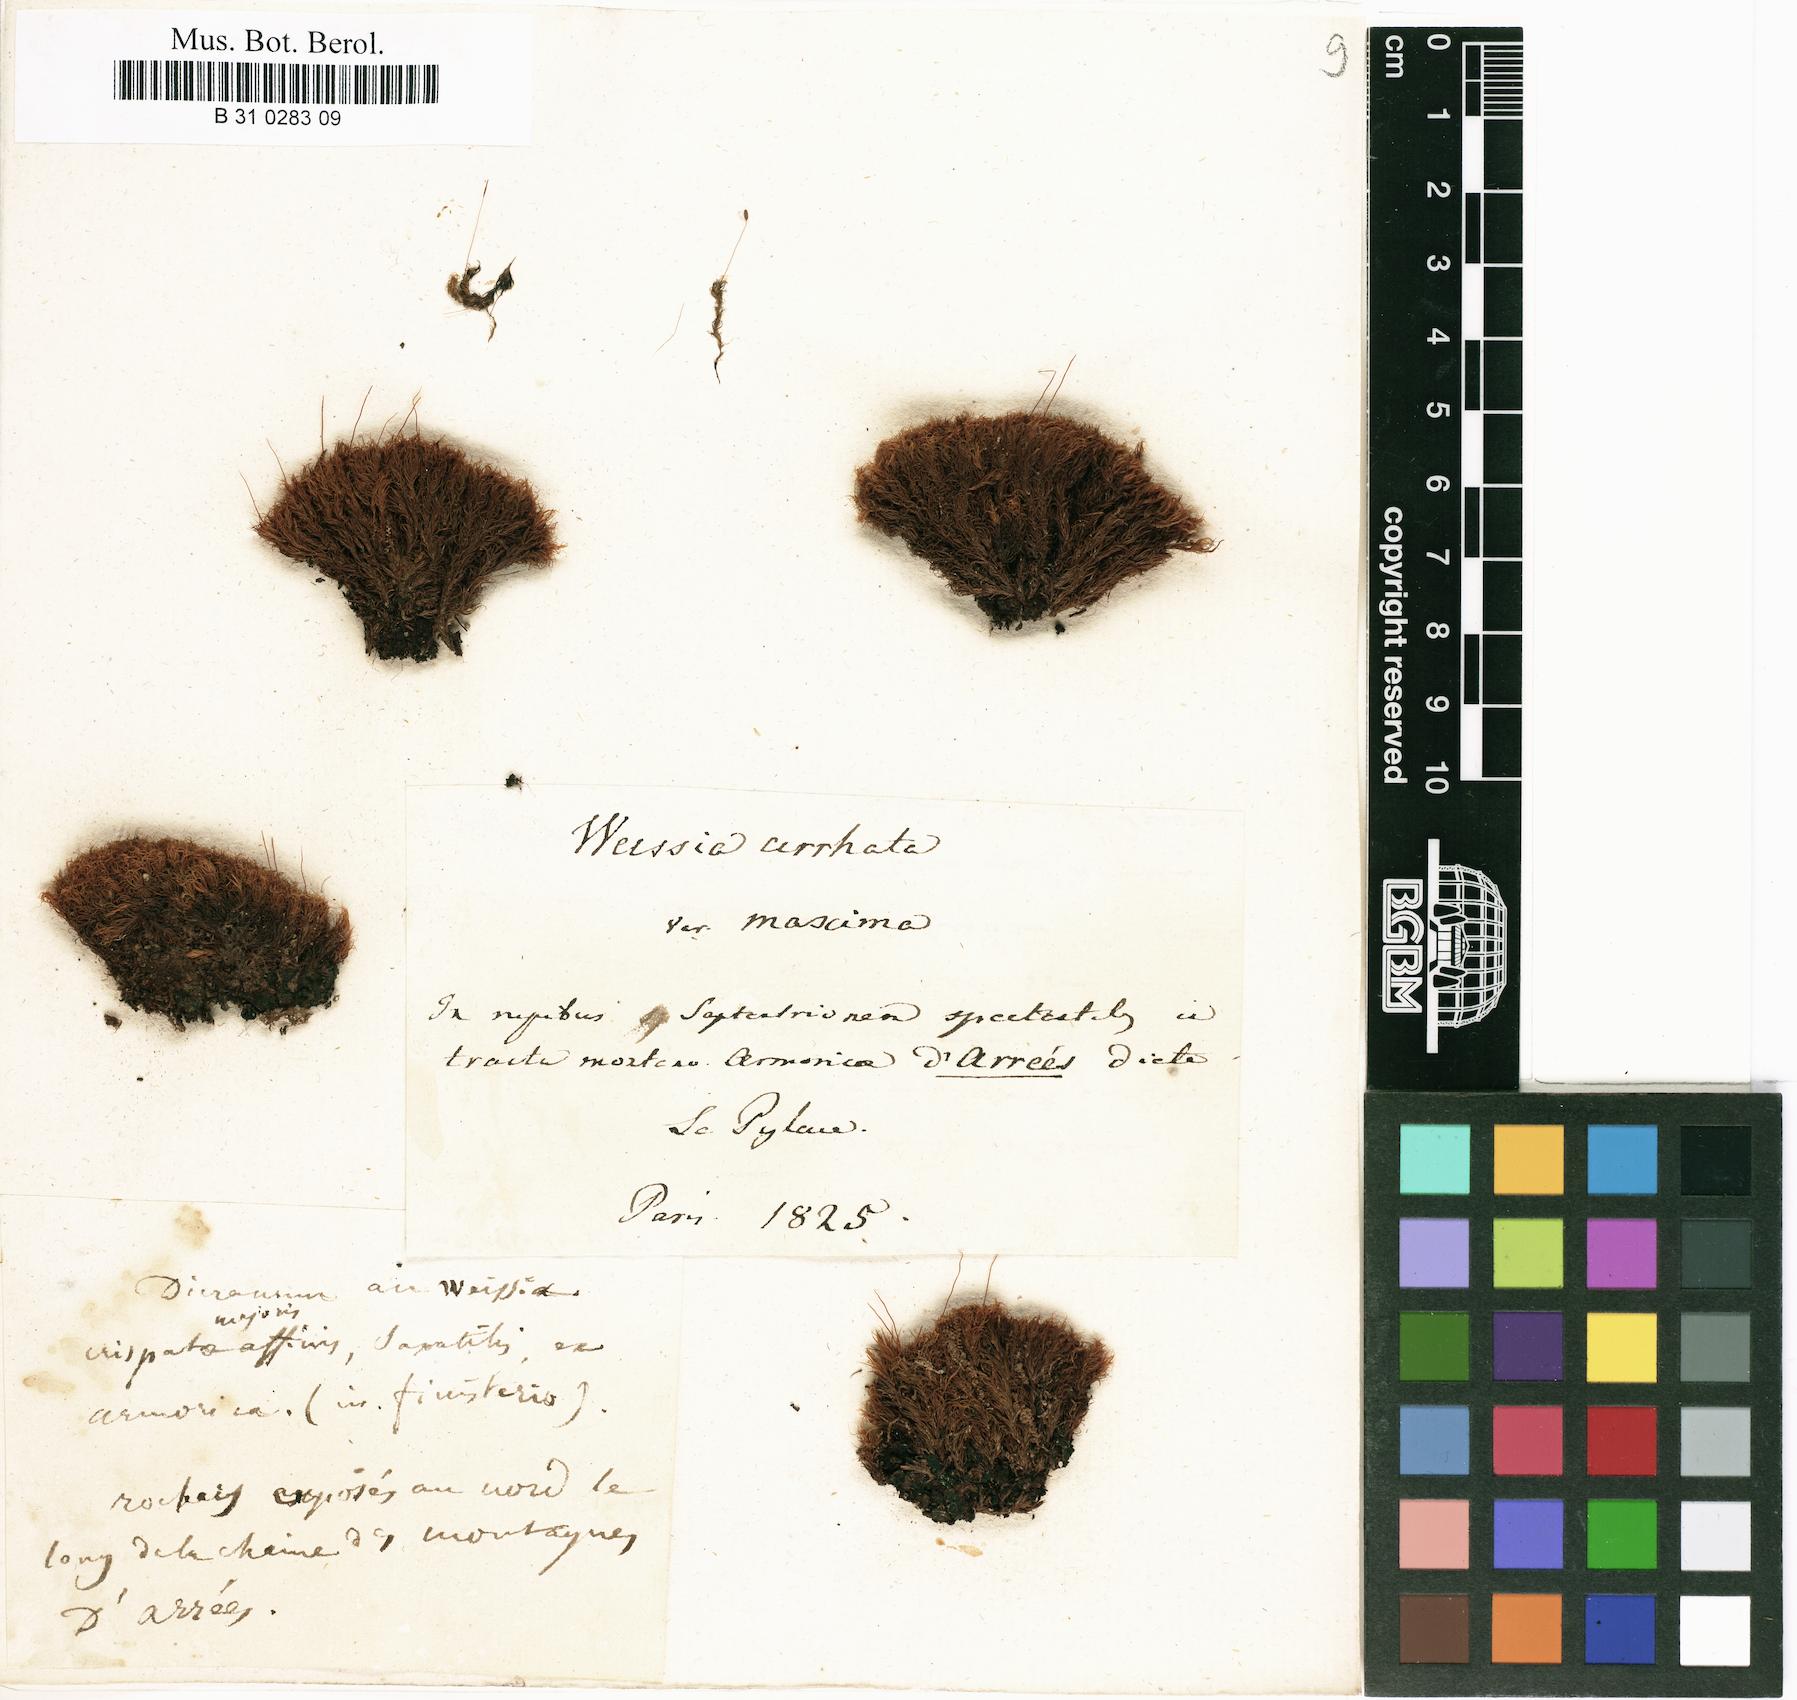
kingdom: Plantae
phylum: Bryophyta
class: Bryopsida
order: Dicranales
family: Rhabdoweisiaceae
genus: Dicranoweisia
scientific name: Dicranoweisia cirrata
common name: Common pincushion
